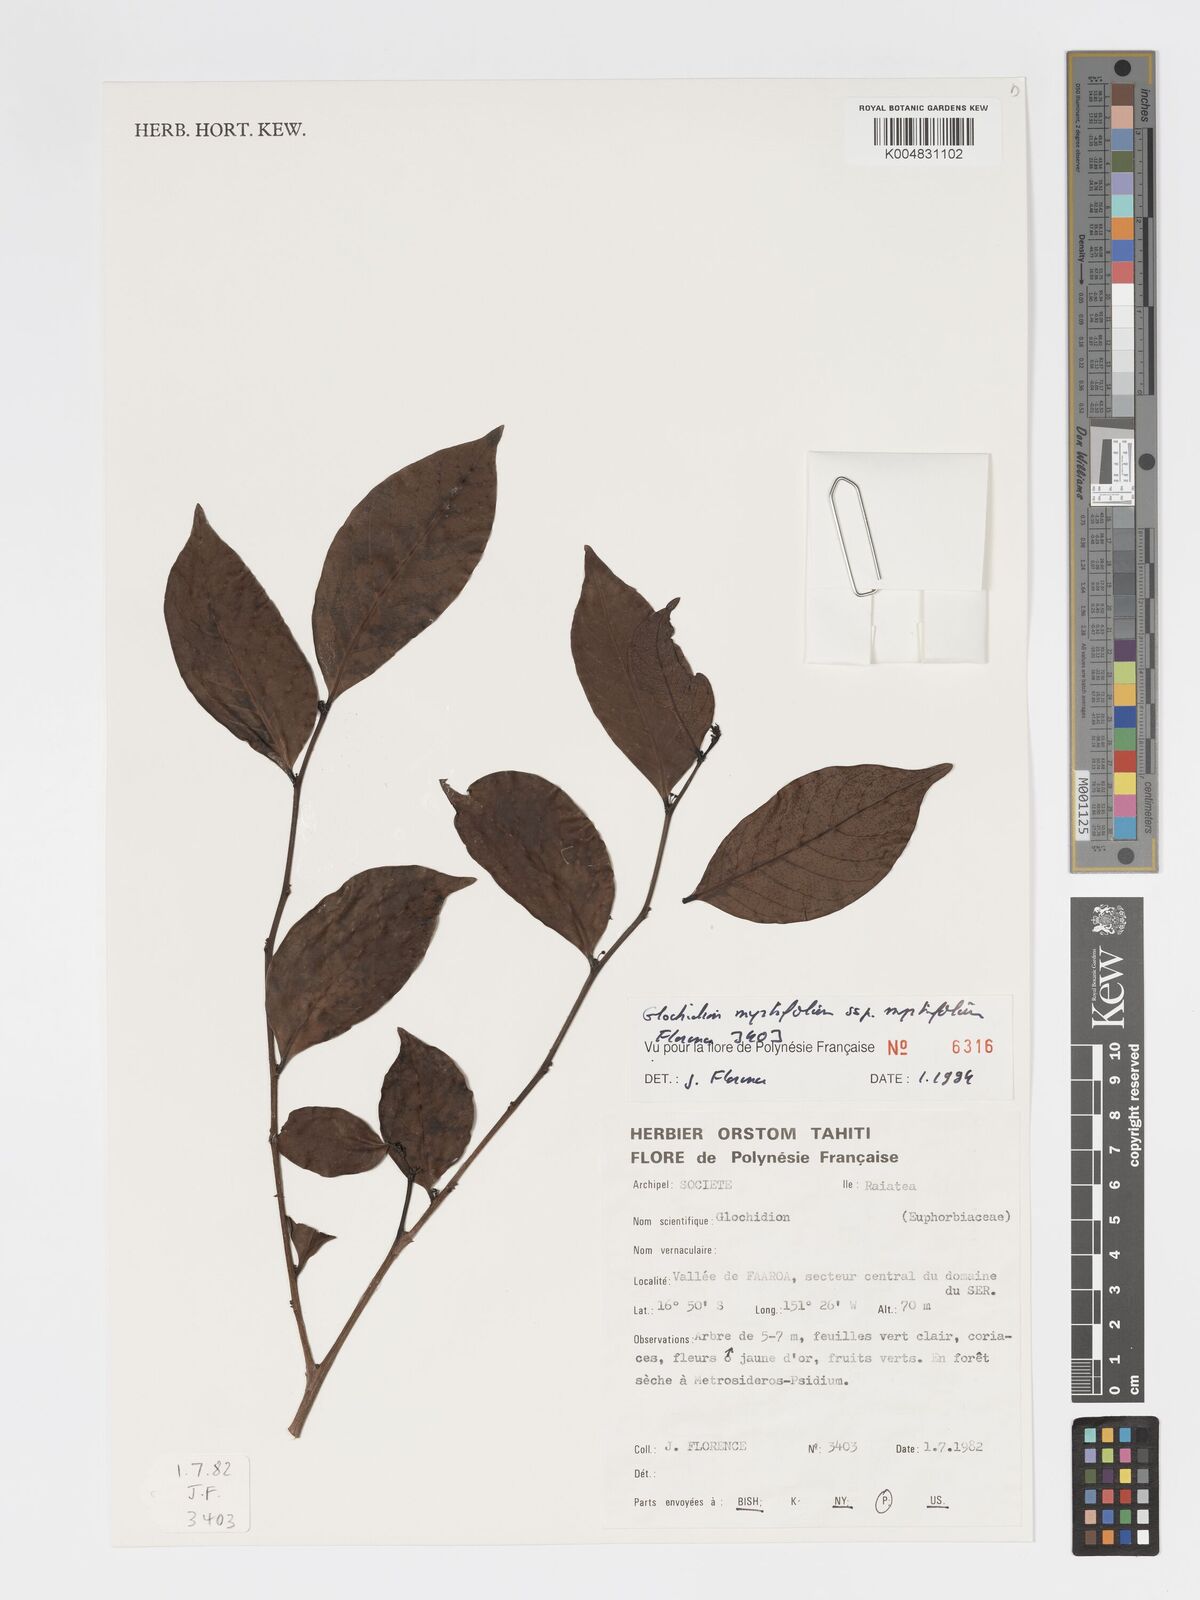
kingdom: Plantae
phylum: Tracheophyta
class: Magnoliopsida
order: Malpighiales
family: Phyllanthaceae
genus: Glochidion
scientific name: Glochidion myrtifolium
